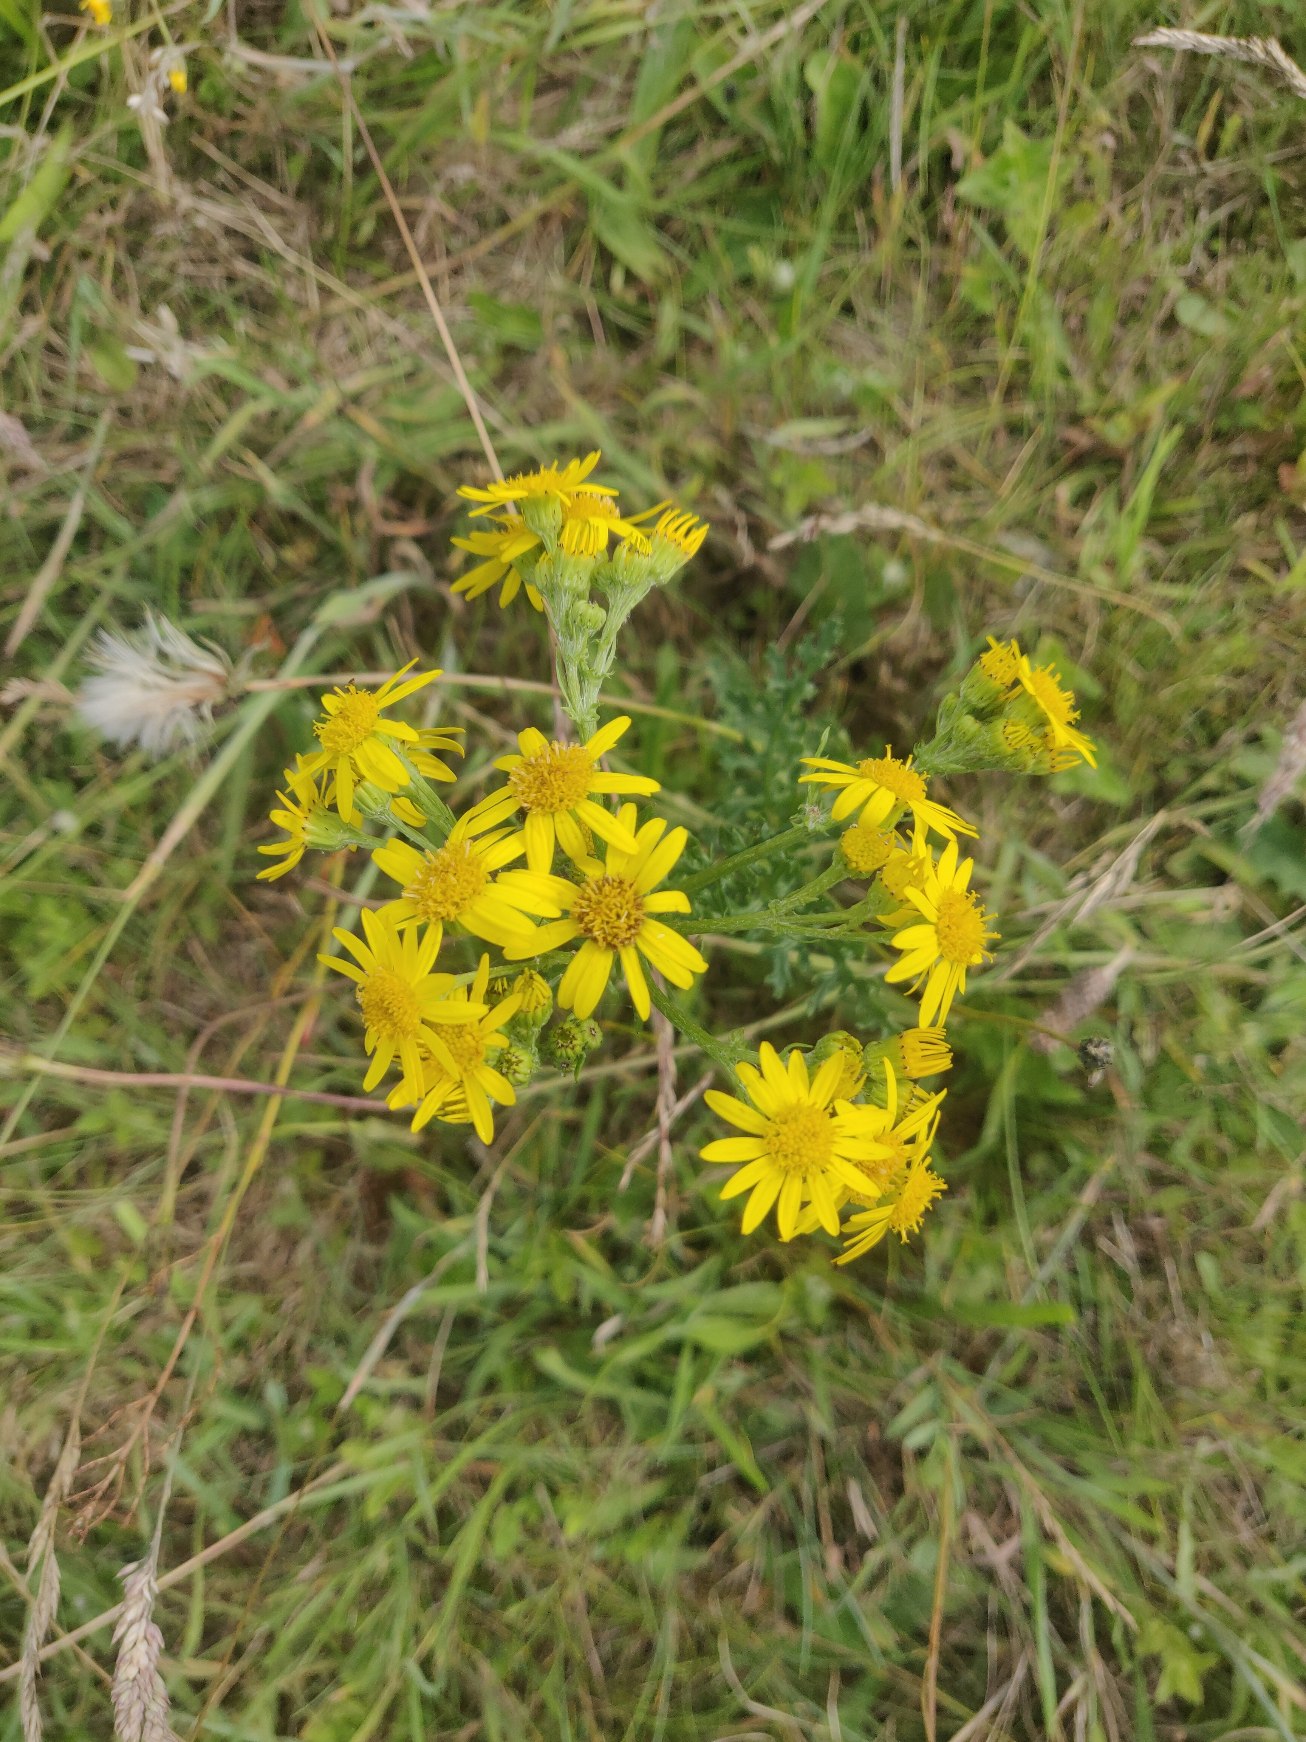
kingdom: Plantae
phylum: Tracheophyta
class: Magnoliopsida
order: Asterales
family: Asteraceae
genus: Jacobaea
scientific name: Jacobaea vulgaris
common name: Eng-brandbæger
